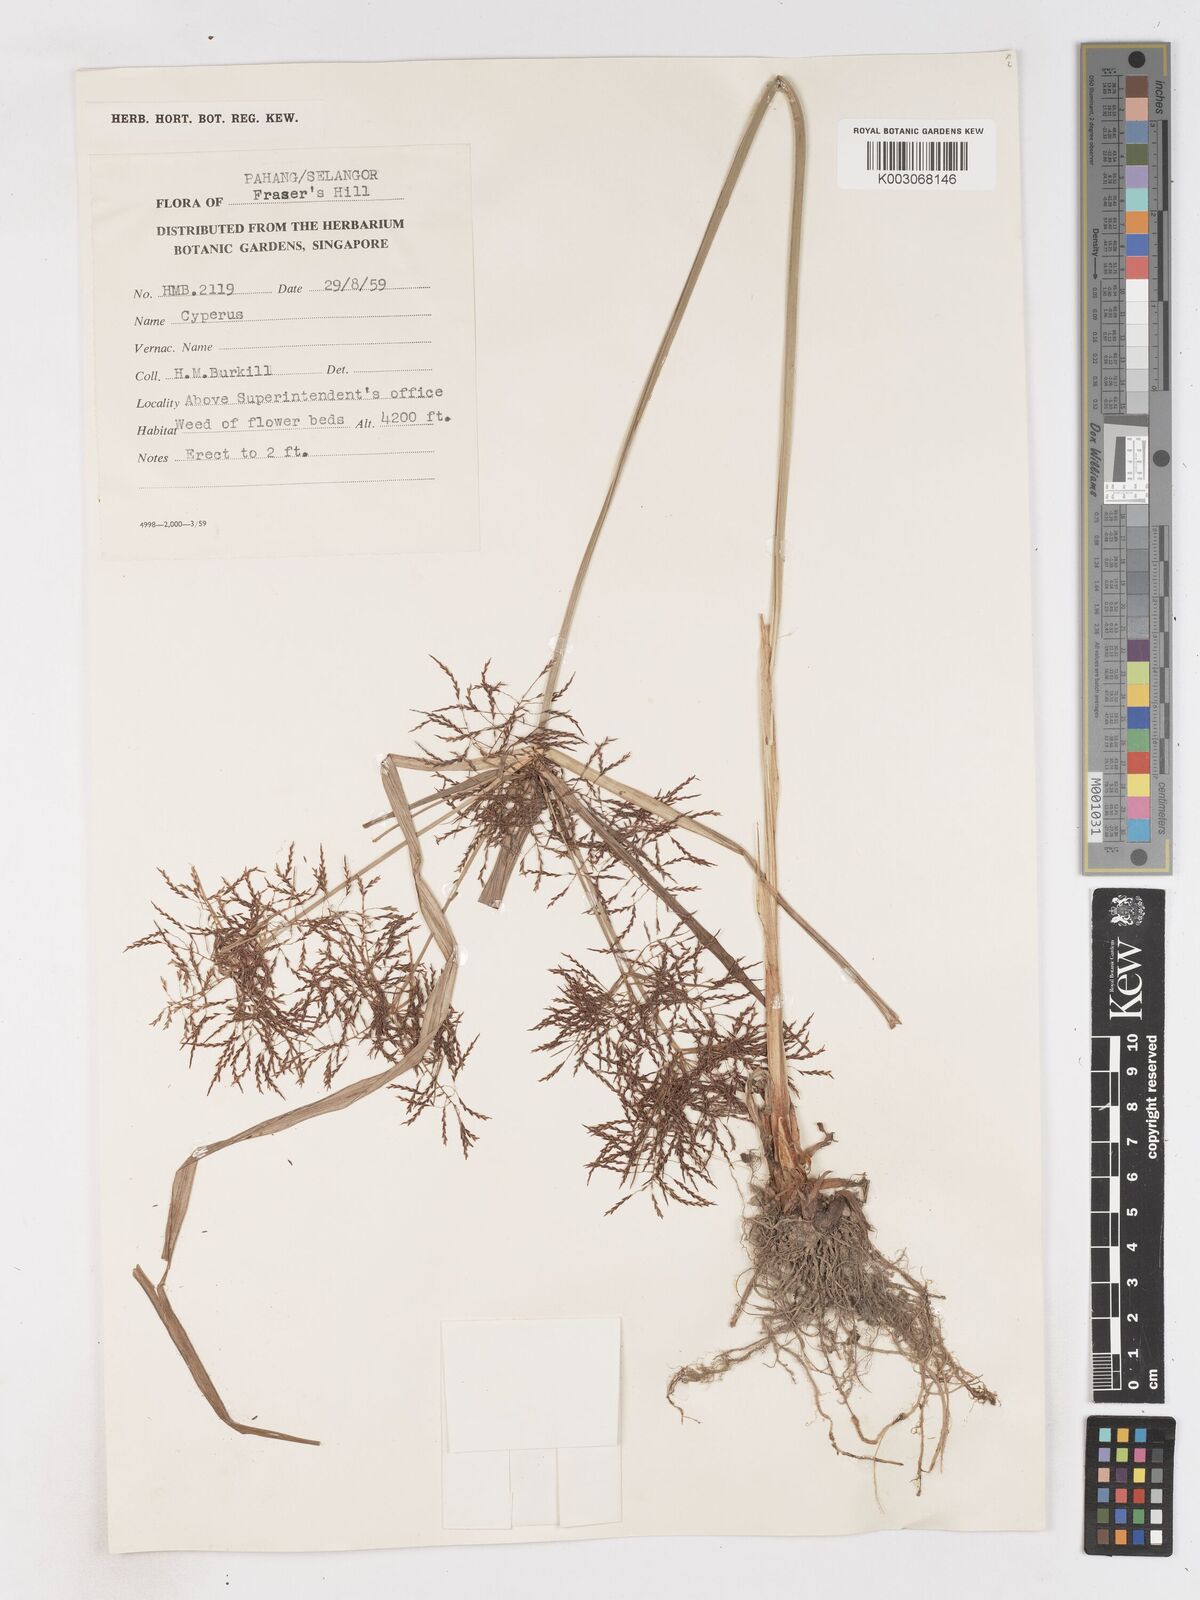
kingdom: Plantae
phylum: Tracheophyta
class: Liliopsida
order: Poales
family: Cyperaceae
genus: Cyperus
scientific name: Cyperus distans
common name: Slender cyperus
